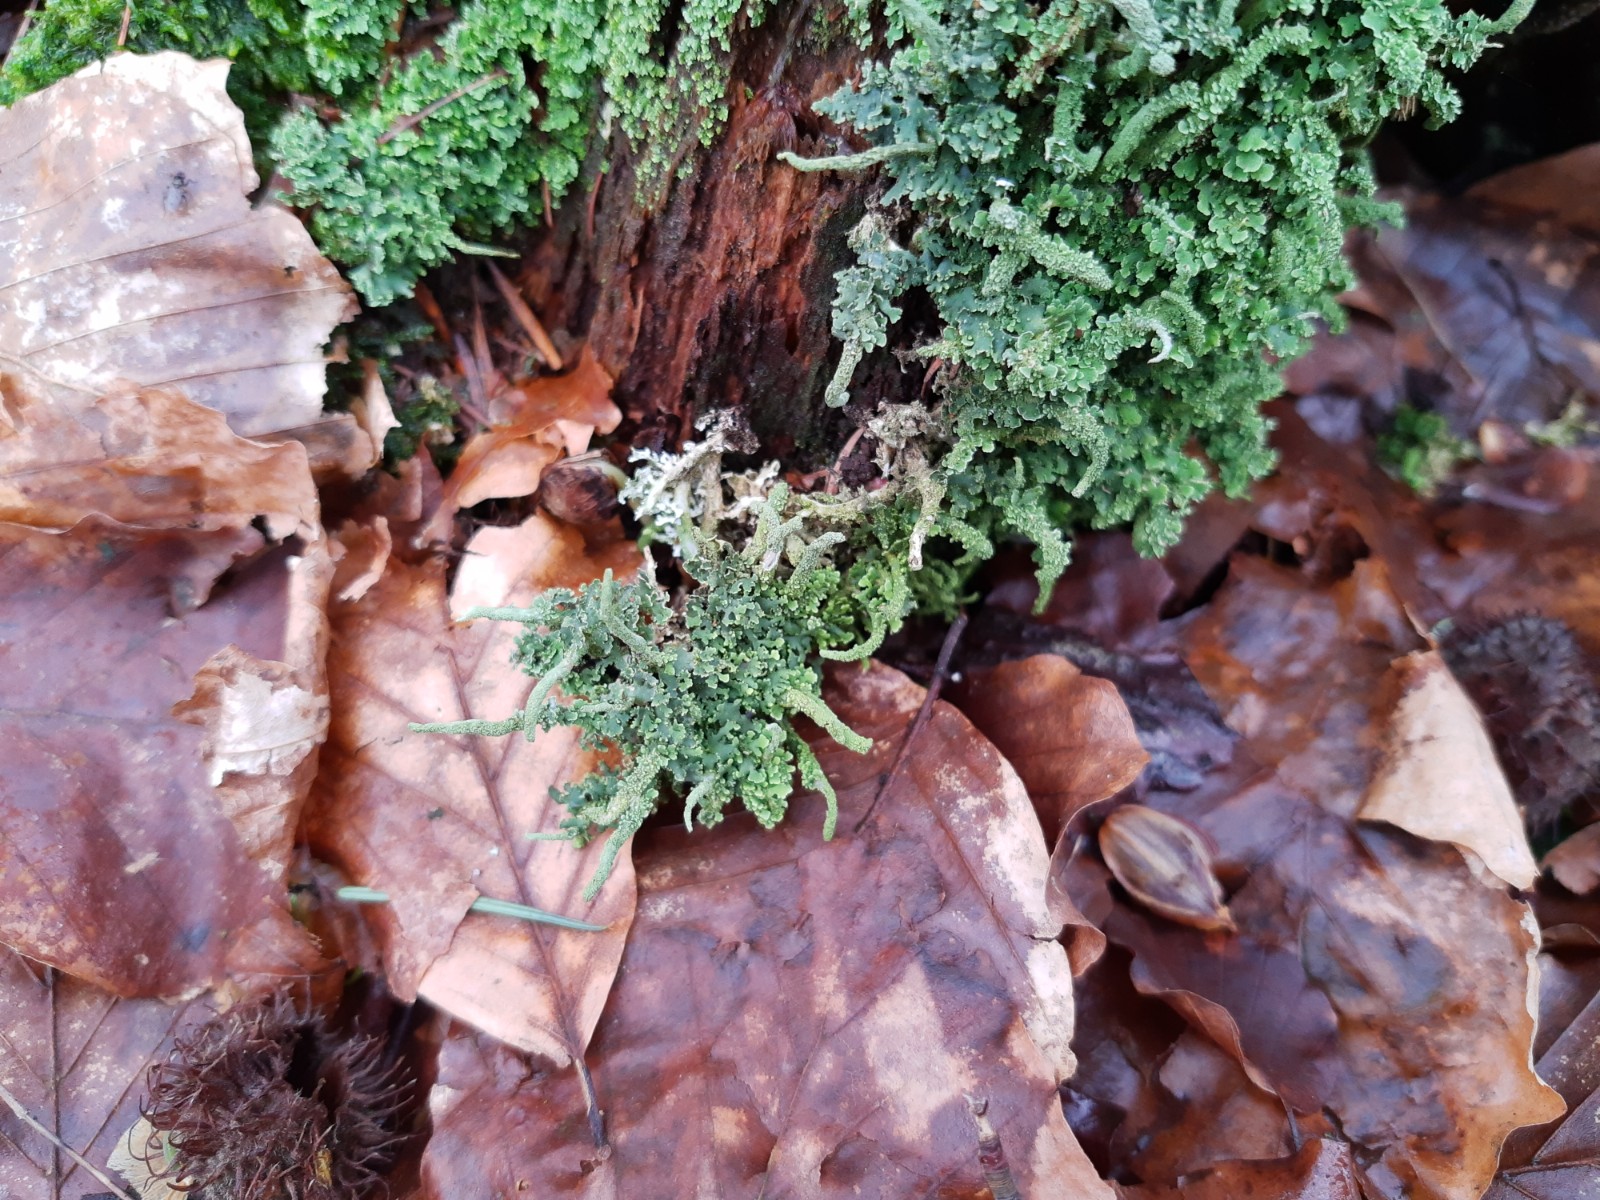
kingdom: Fungi
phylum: Ascomycota
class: Lecanoromycetes
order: Lecanorales
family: Cladoniaceae
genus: Cladonia
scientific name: Cladonia coniocraea
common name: træfods-bægerlav
